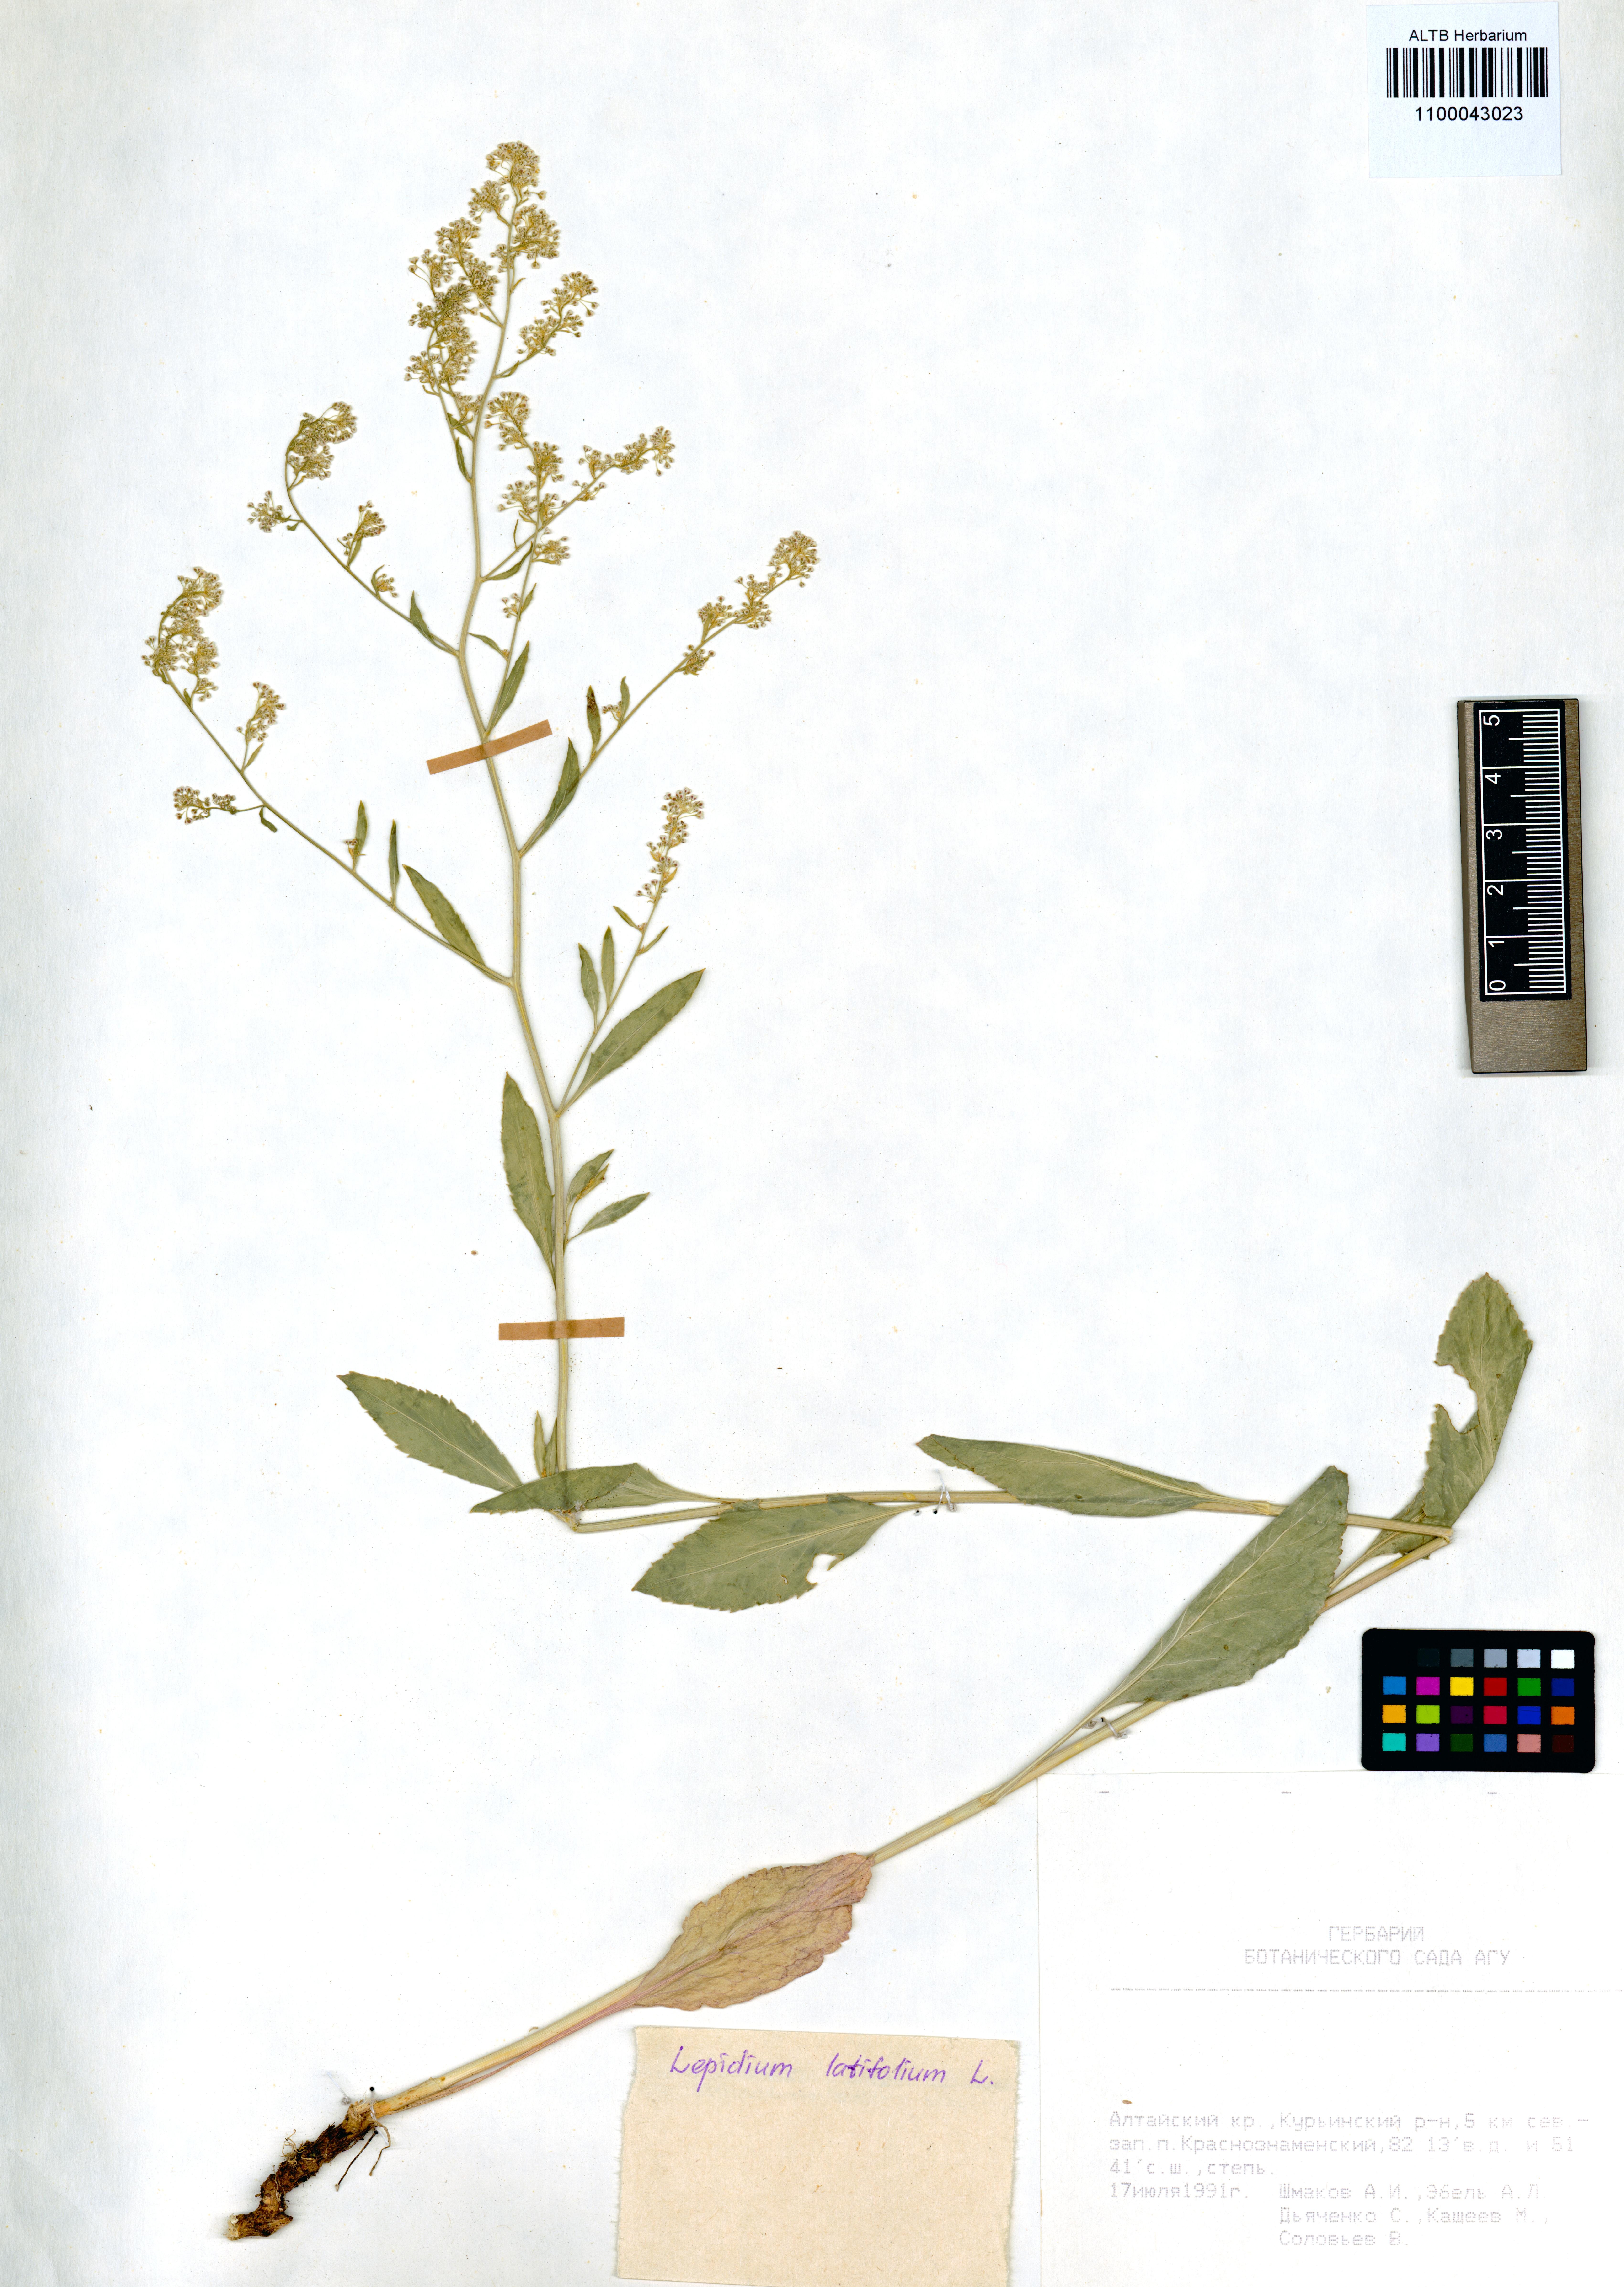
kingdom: Plantae
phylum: Tracheophyta
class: Magnoliopsida
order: Brassicales
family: Brassicaceae
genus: Lepidium
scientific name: Lepidium latifolium
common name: Dittander
